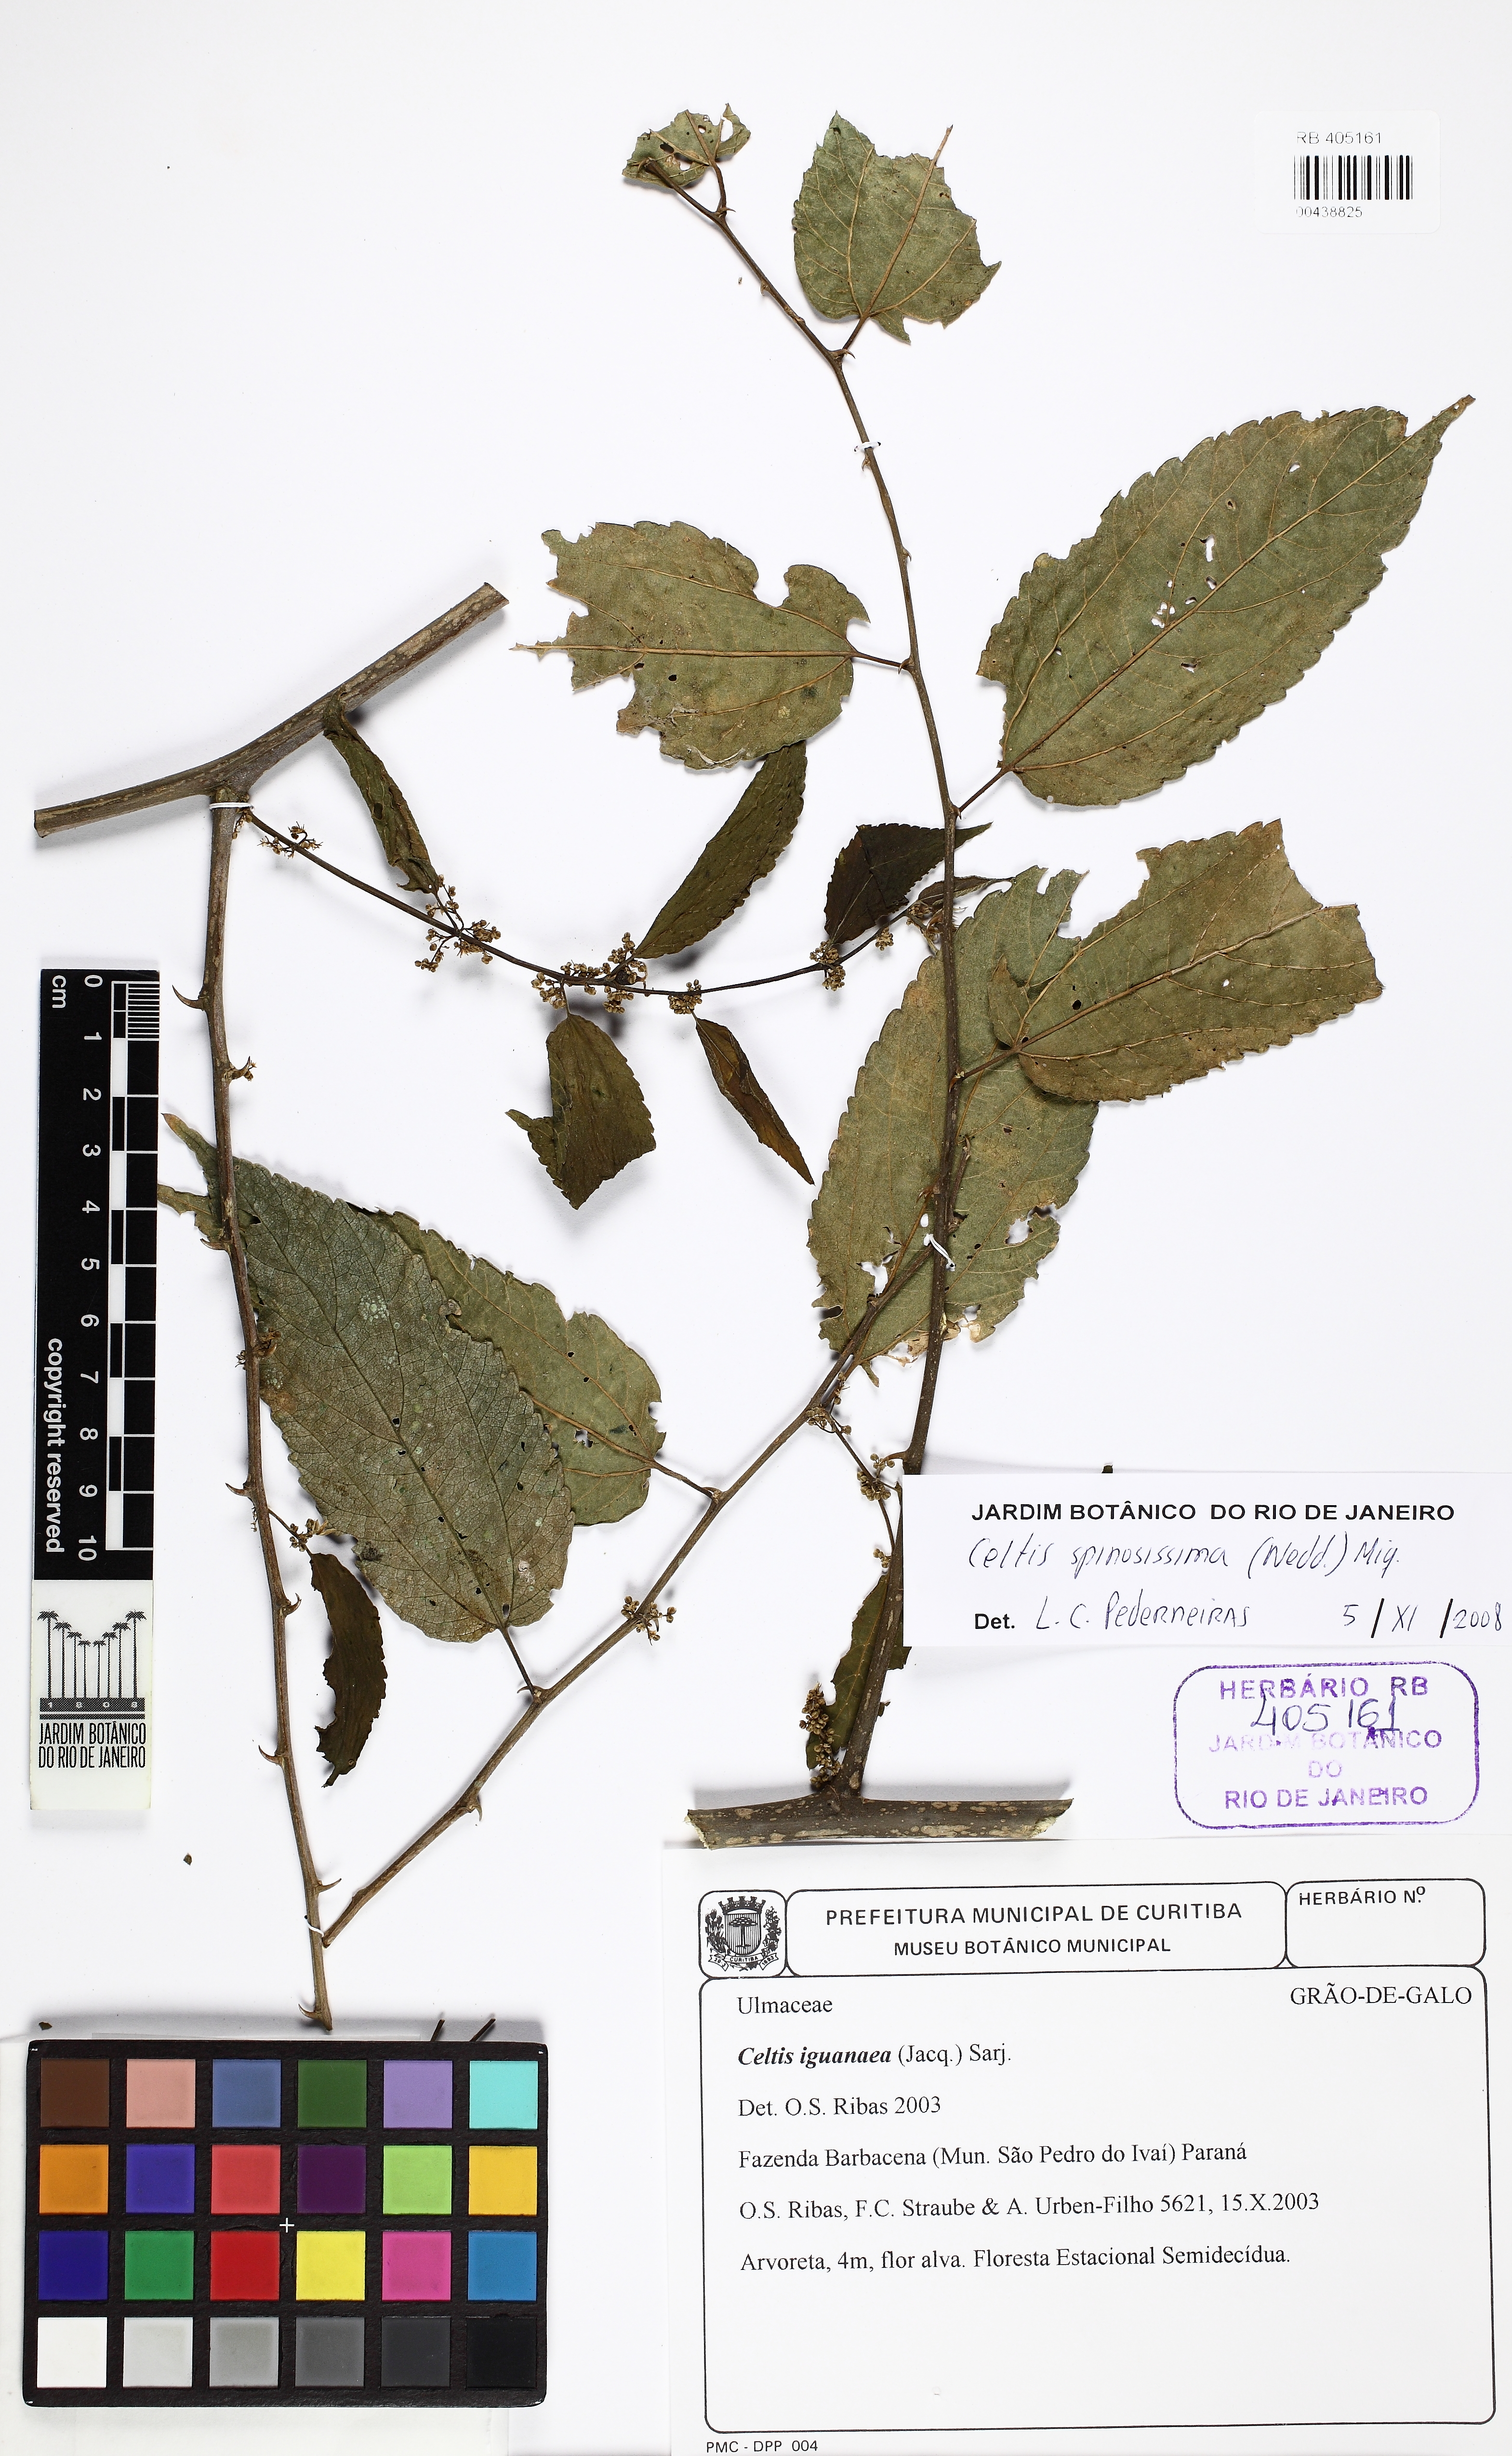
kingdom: Plantae
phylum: Tracheophyta
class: Magnoliopsida
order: Rosales
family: Cannabaceae
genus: Celtis
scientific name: Celtis iguanaea
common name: Iguana hackberry
